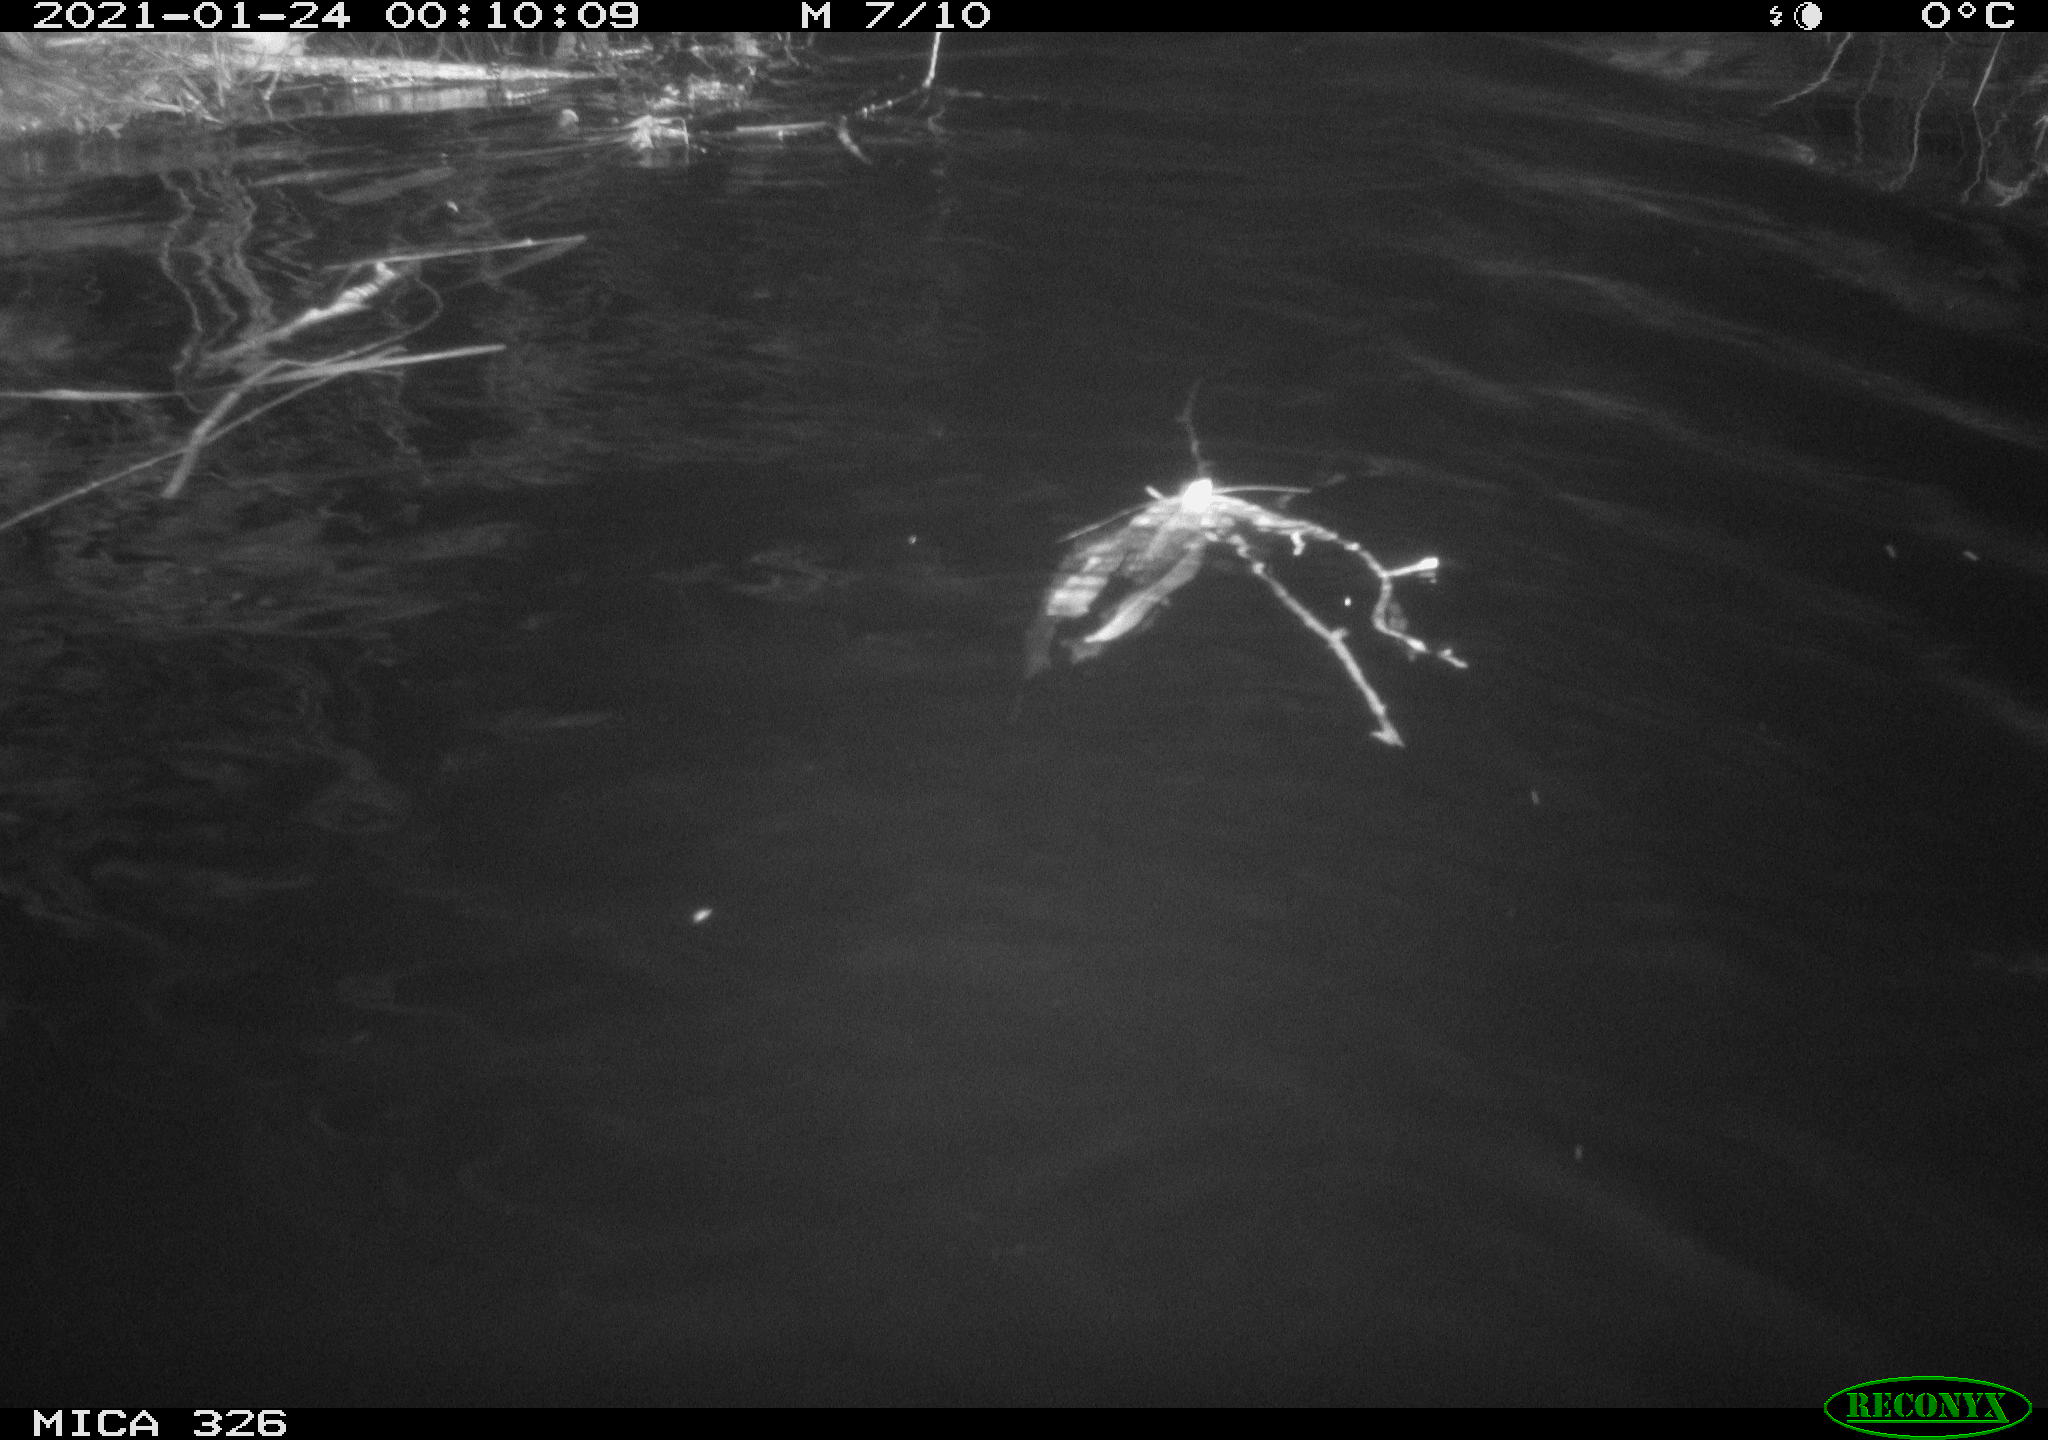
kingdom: Animalia
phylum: Chordata
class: Mammalia
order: Rodentia
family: Cricetidae
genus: Ondatra
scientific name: Ondatra zibethicus
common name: Muskrat
